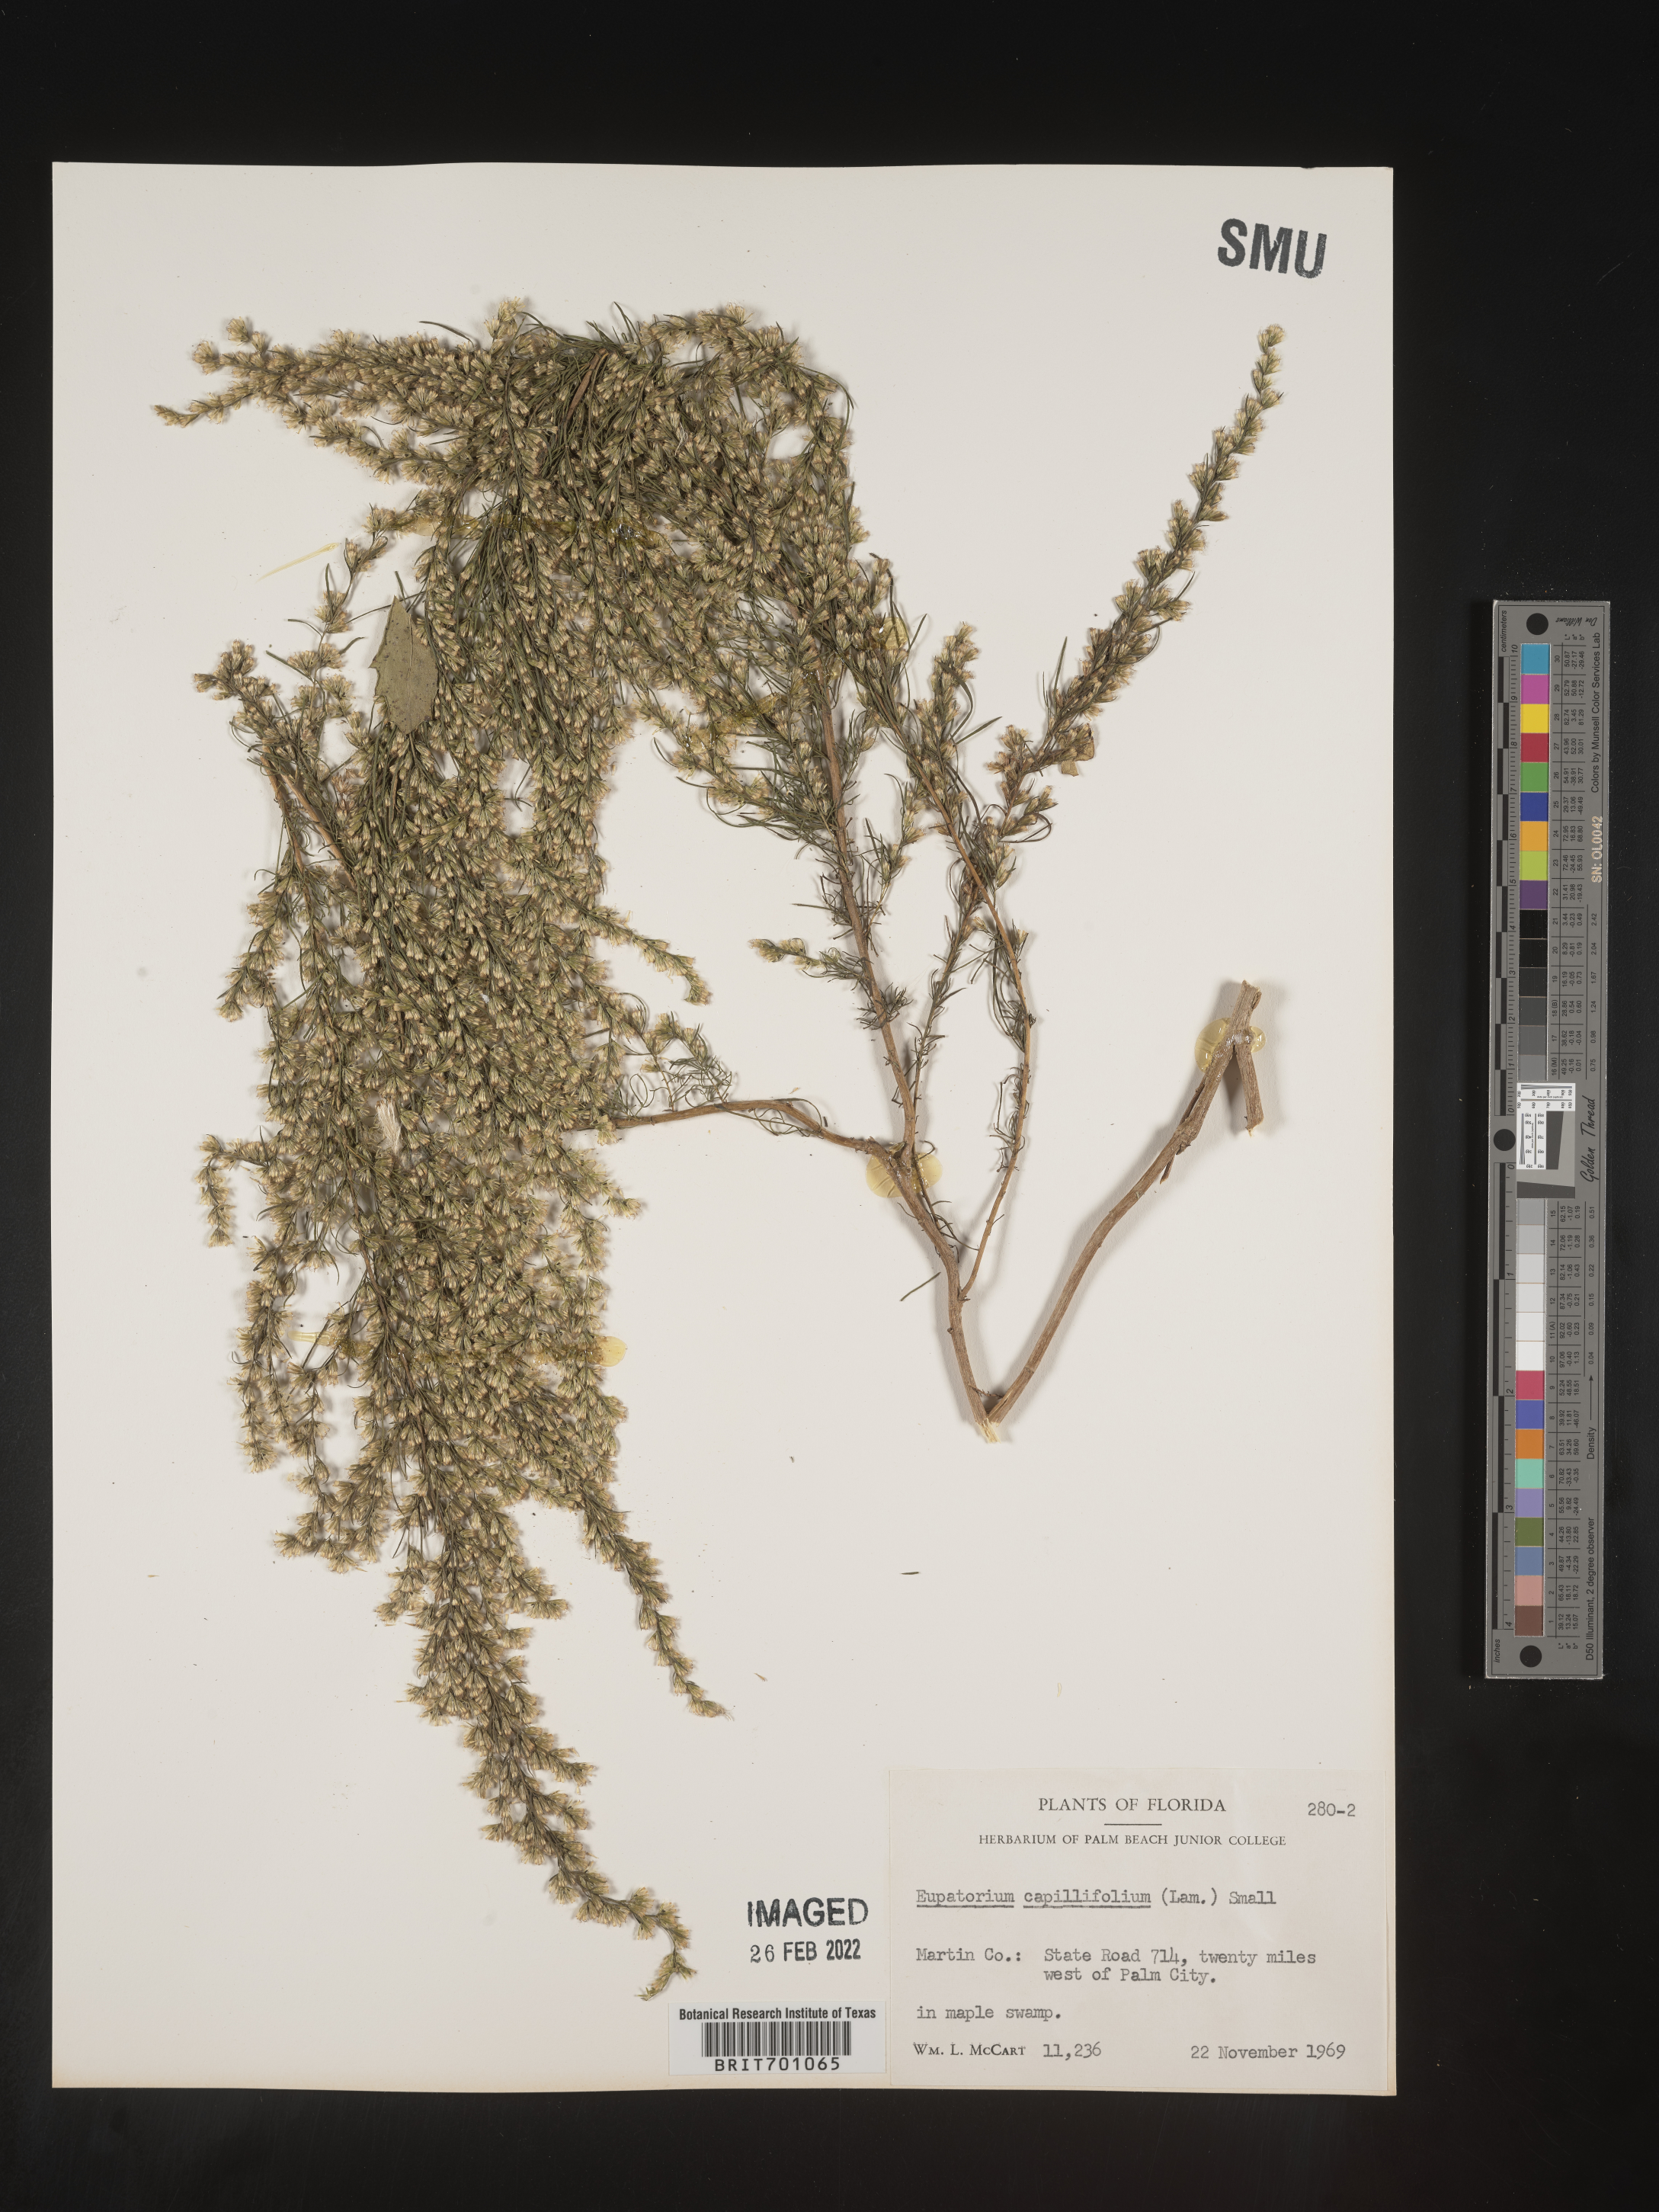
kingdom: Plantae
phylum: Tracheophyta
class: Magnoliopsida
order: Asterales
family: Asteraceae
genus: Eupatorium
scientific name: Eupatorium capillifolium
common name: Dog-fennel
